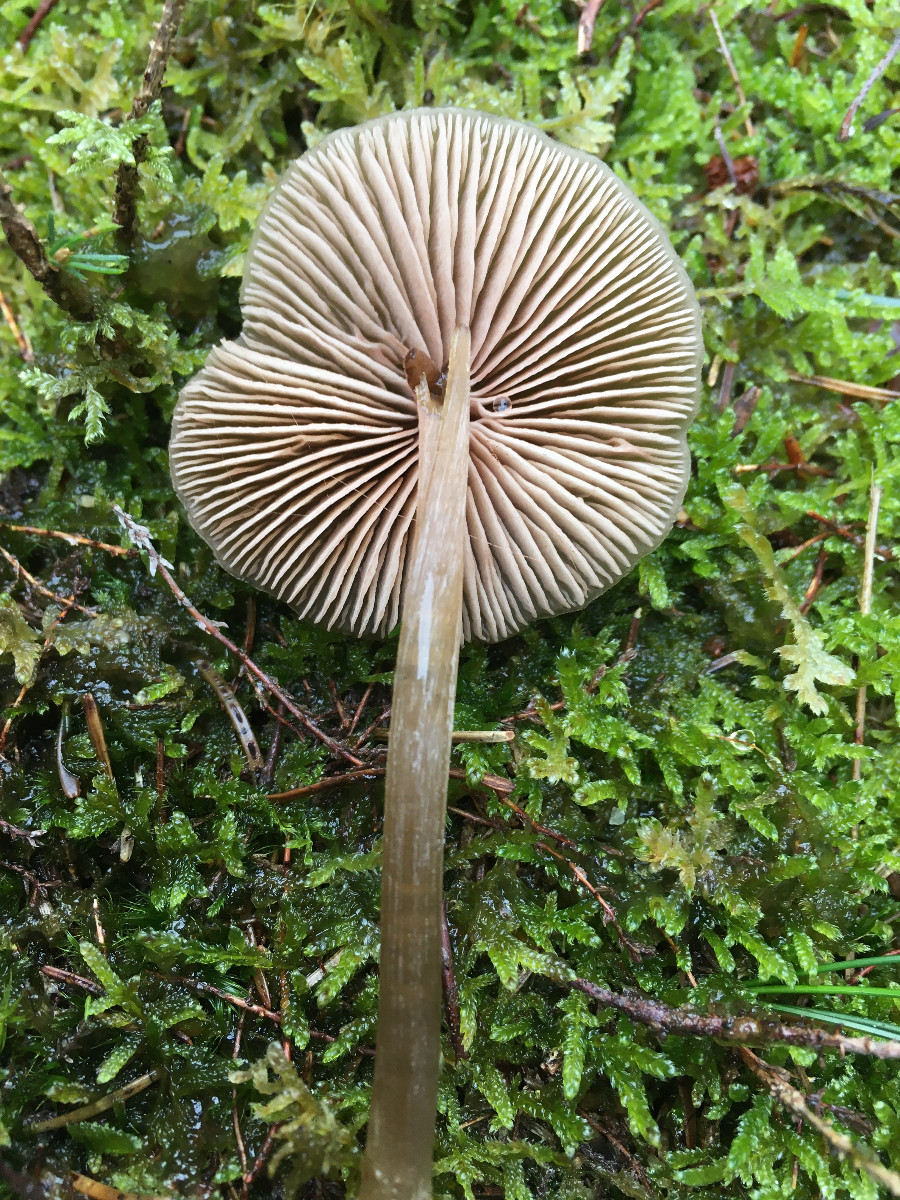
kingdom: Fungi
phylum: Basidiomycota
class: Agaricomycetes
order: Agaricales
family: Entolomataceae
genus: Entoloma
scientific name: Entoloma cetratum
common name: voks-rødblad
